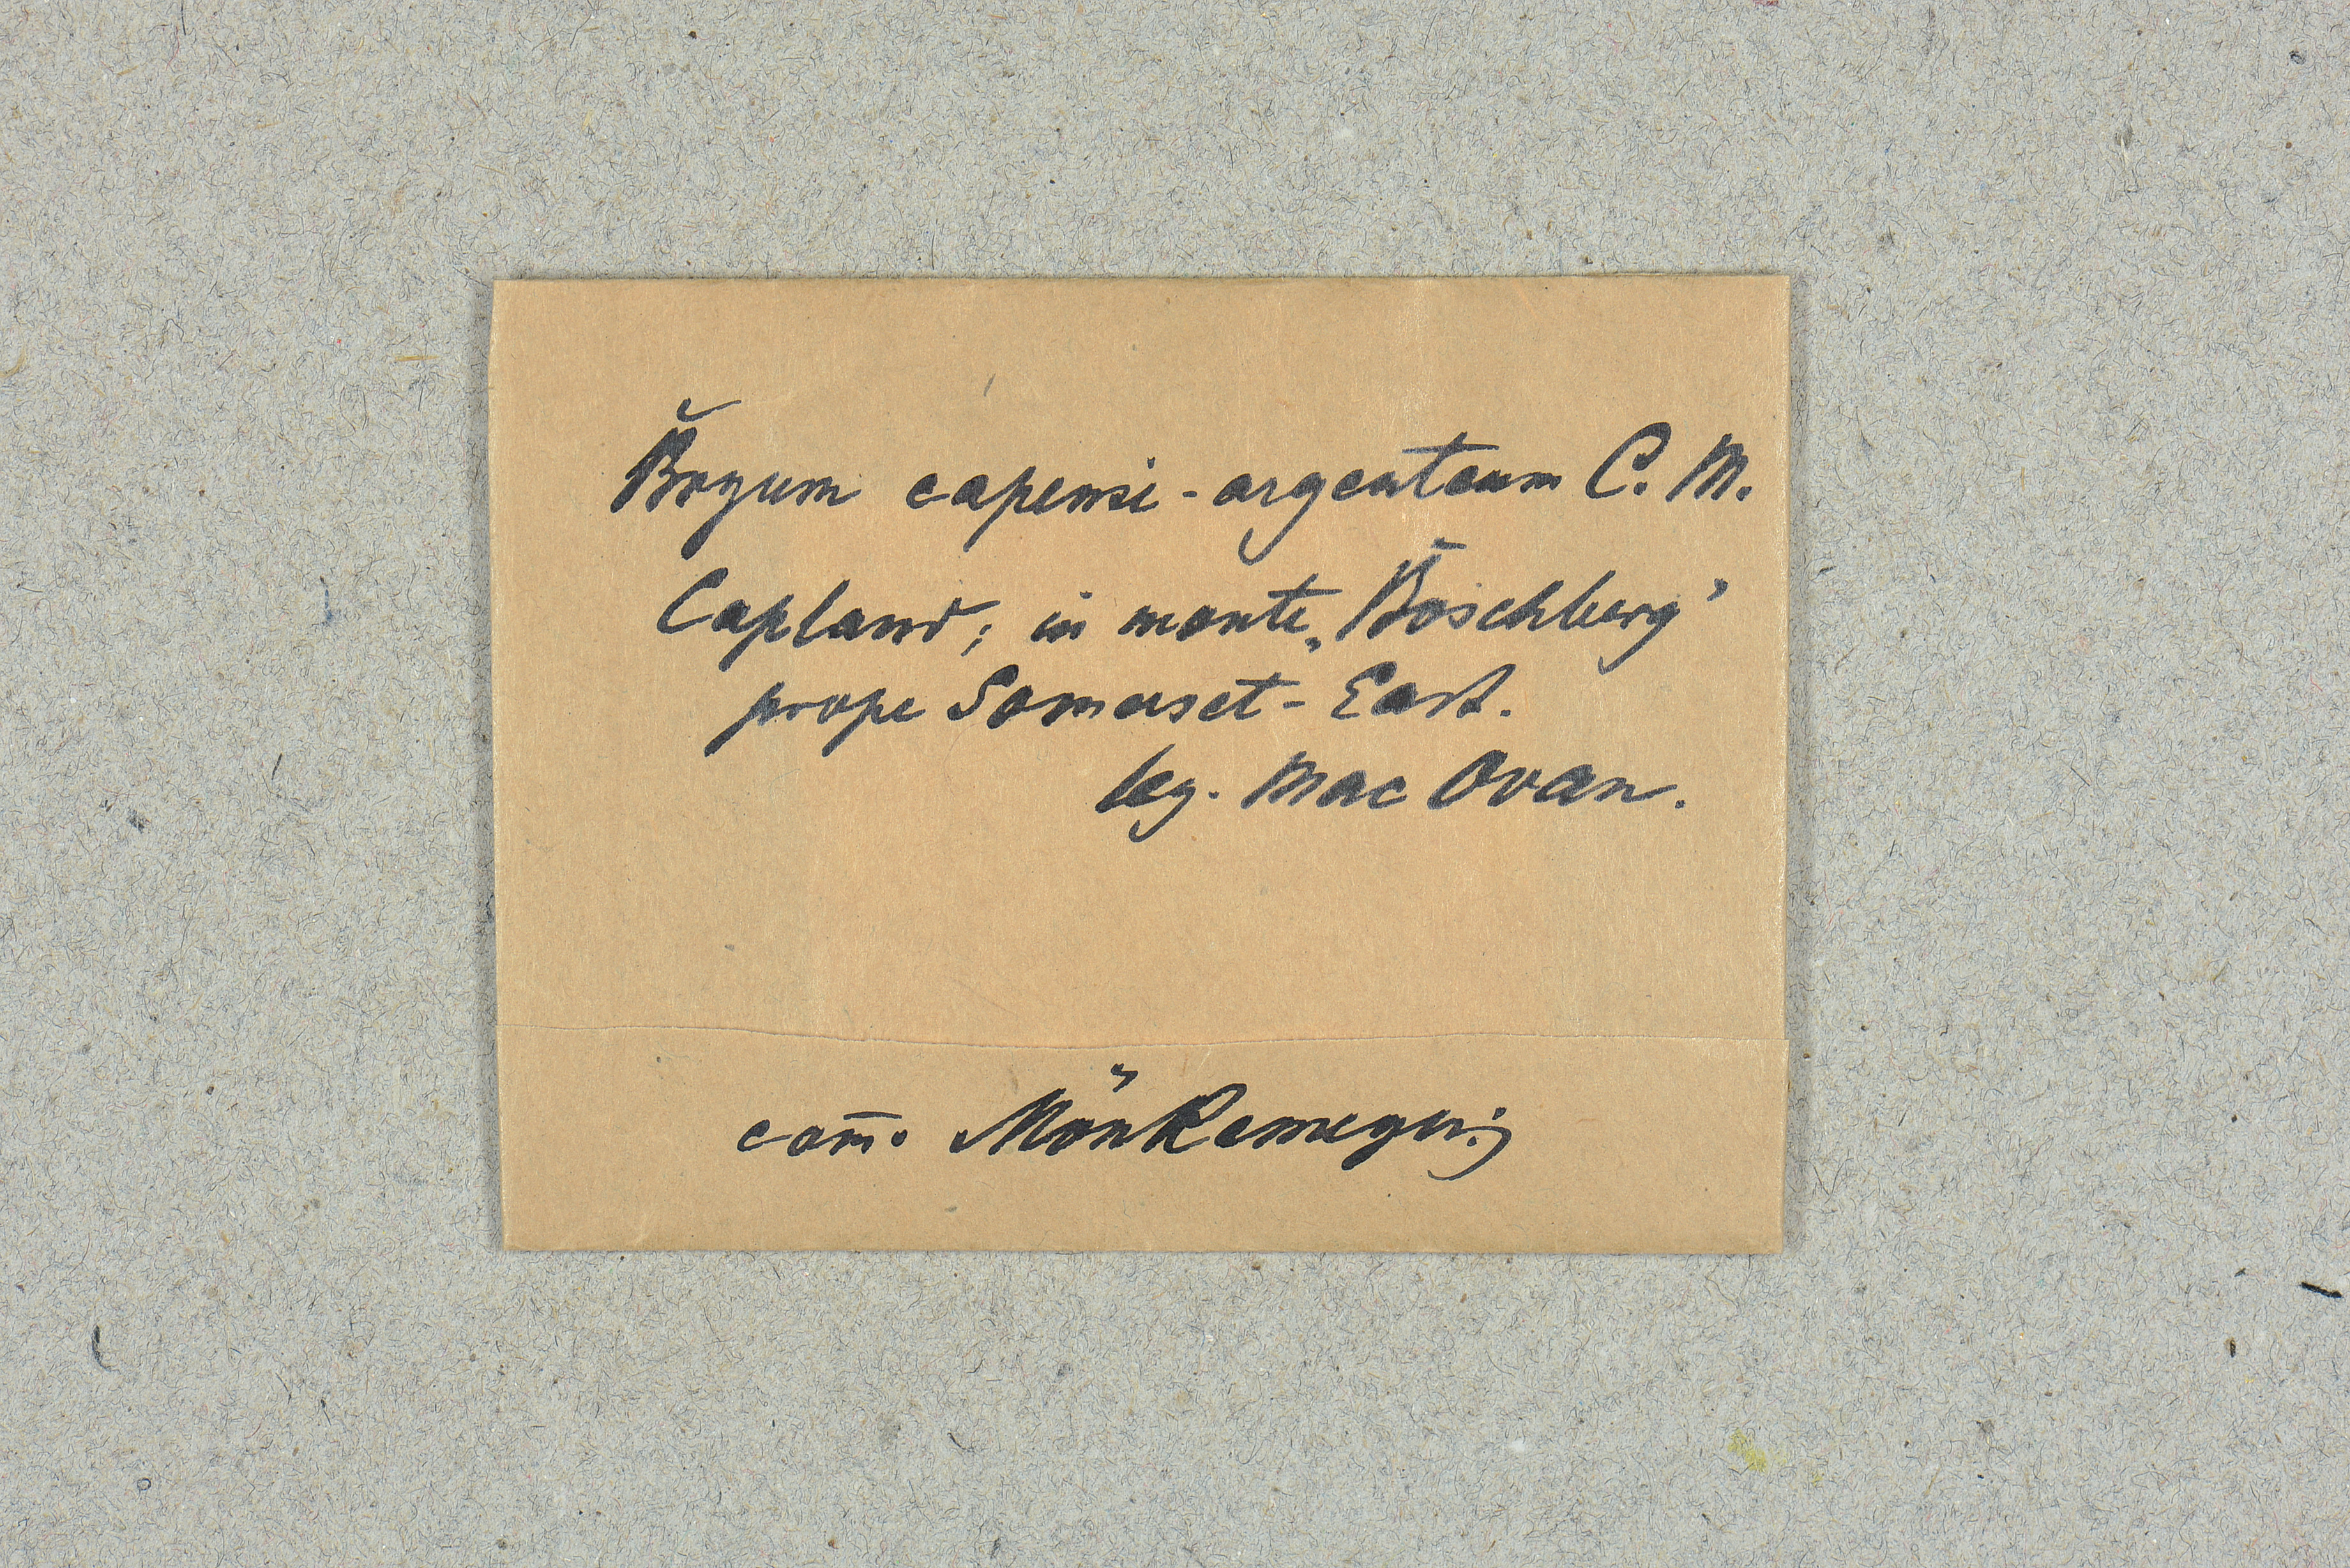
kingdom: Plantae
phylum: Bryophyta
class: Bryopsida
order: Bryales
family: Bryaceae
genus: Bryum
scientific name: Bryum argenteum
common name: Silver-moss
